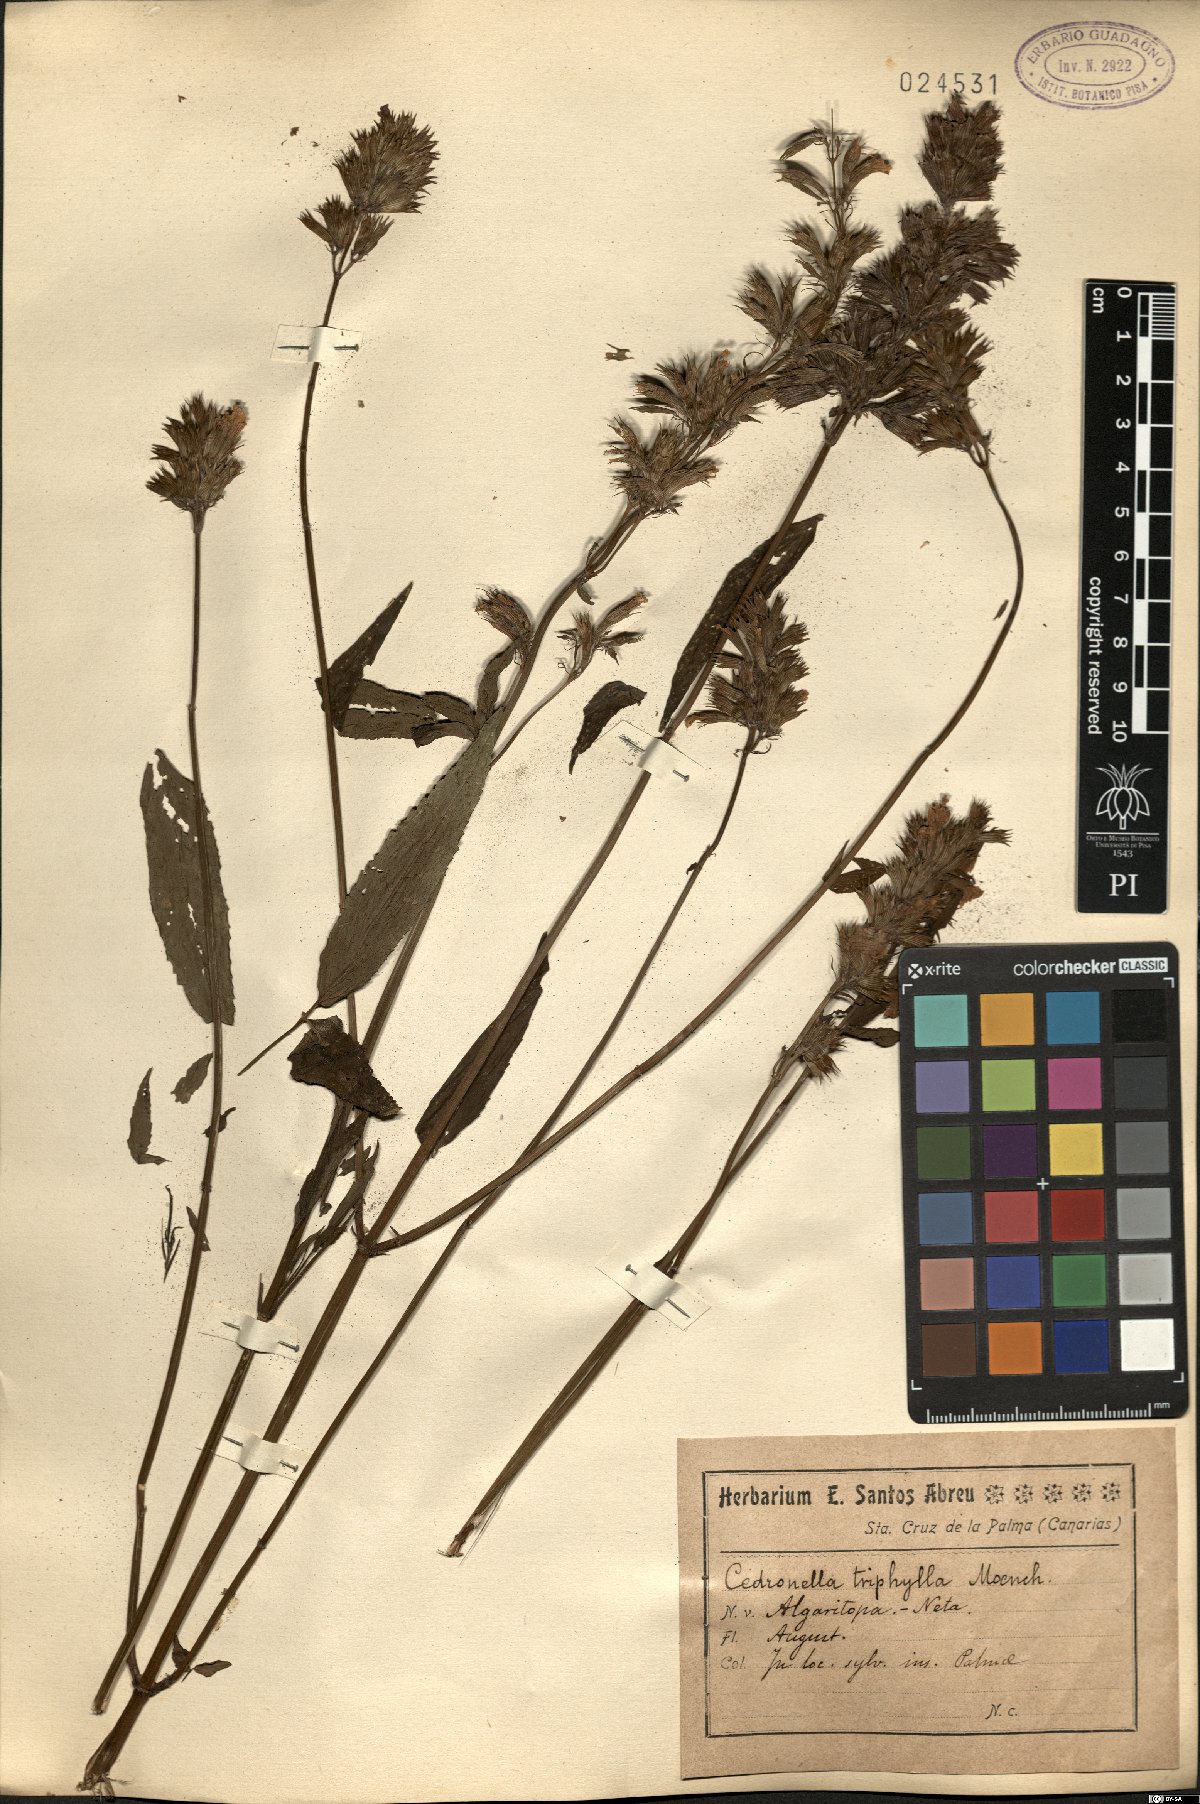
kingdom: Plantae
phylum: Tracheophyta
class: Magnoliopsida
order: Lamiales
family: Lamiaceae
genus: Cedronella
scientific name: Cedronella canariensis
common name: Canary islands balm
